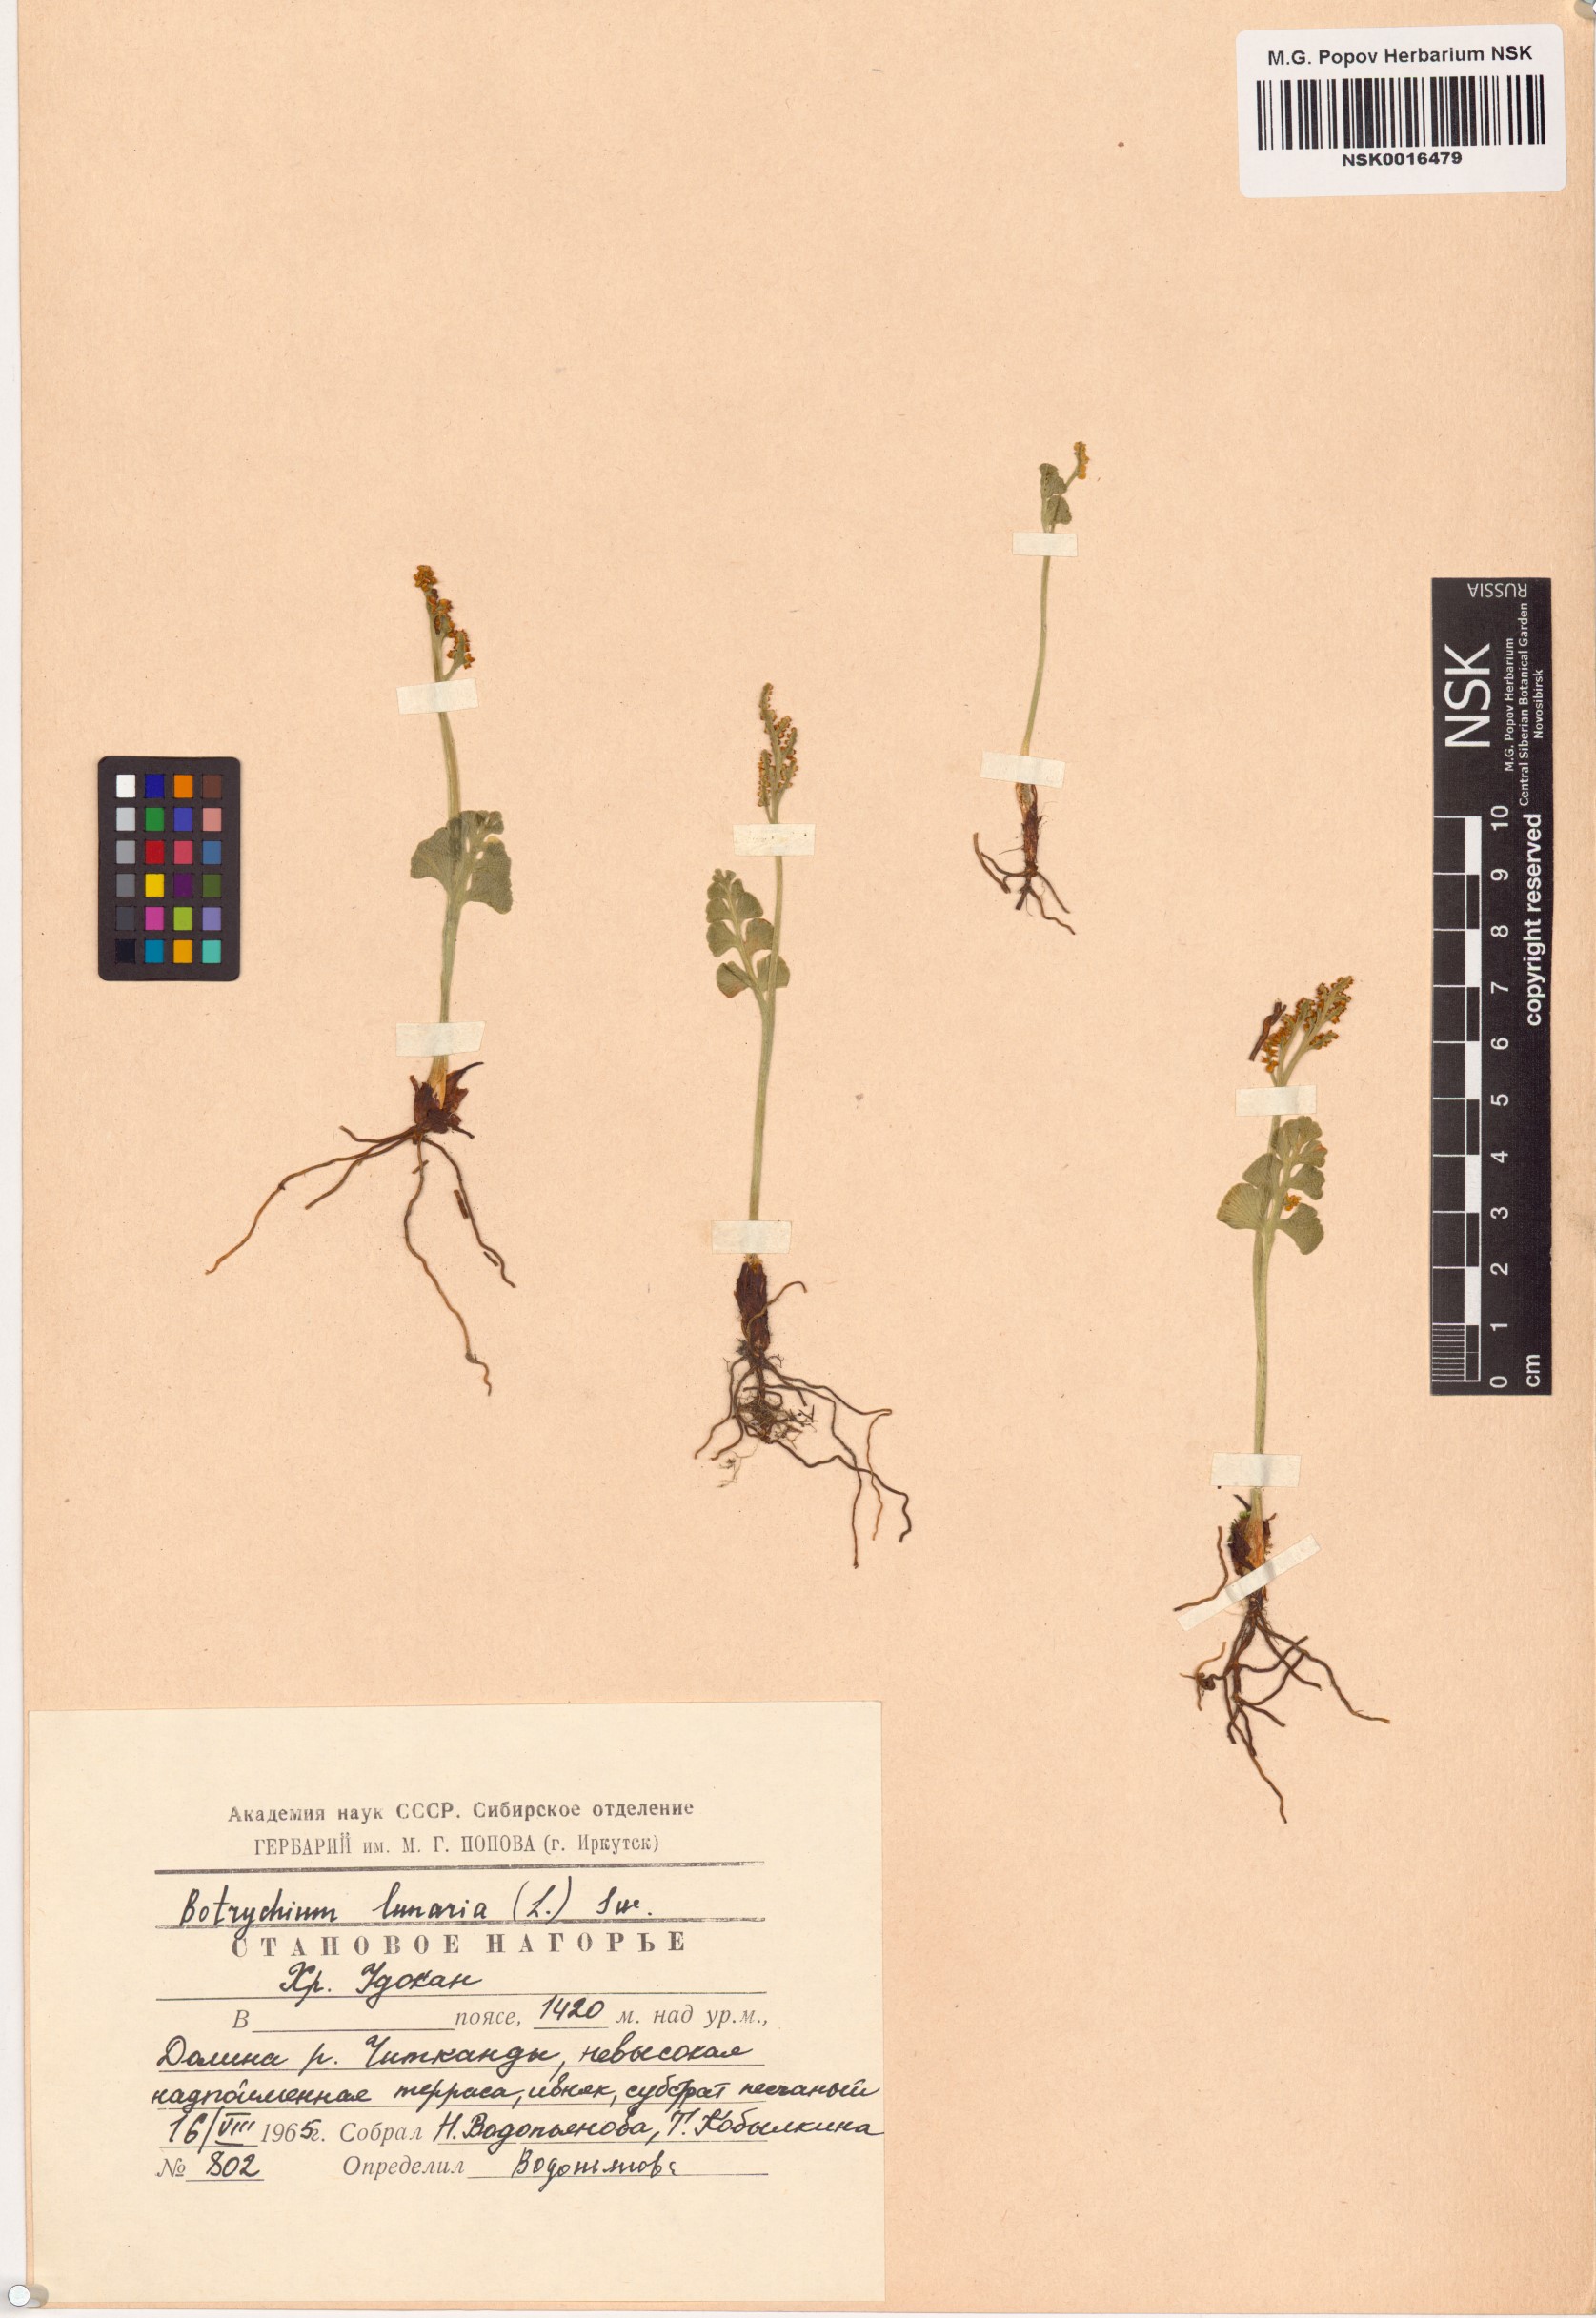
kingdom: Plantae
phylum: Tracheophyta
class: Polypodiopsida
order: Ophioglossales
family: Ophioglossaceae
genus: Botrychium
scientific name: Botrychium lunaria
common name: Moonwort
